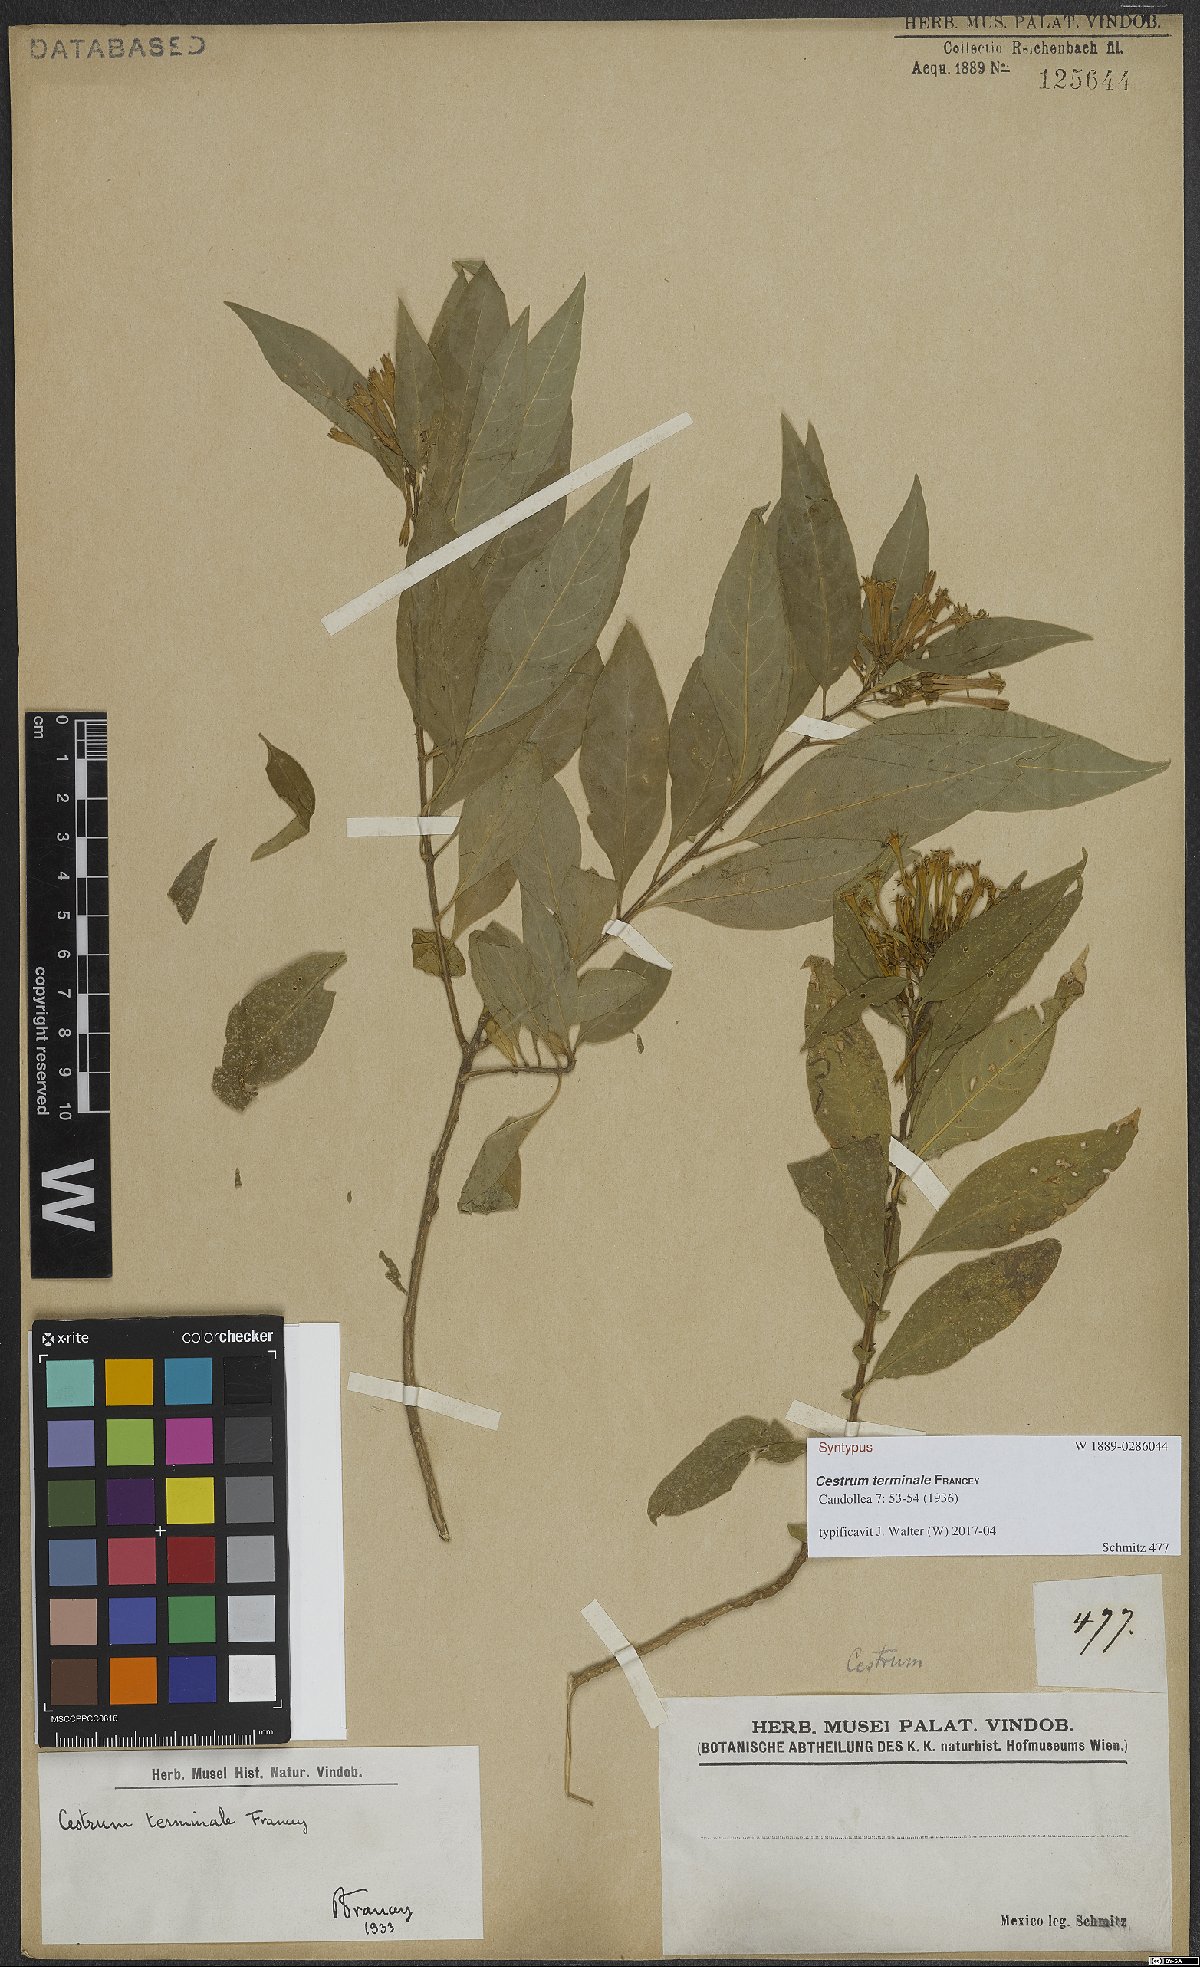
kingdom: Plantae
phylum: Tracheophyta
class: Magnoliopsida
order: Solanales
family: Solanaceae
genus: Cestrum
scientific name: Cestrum nitidum
